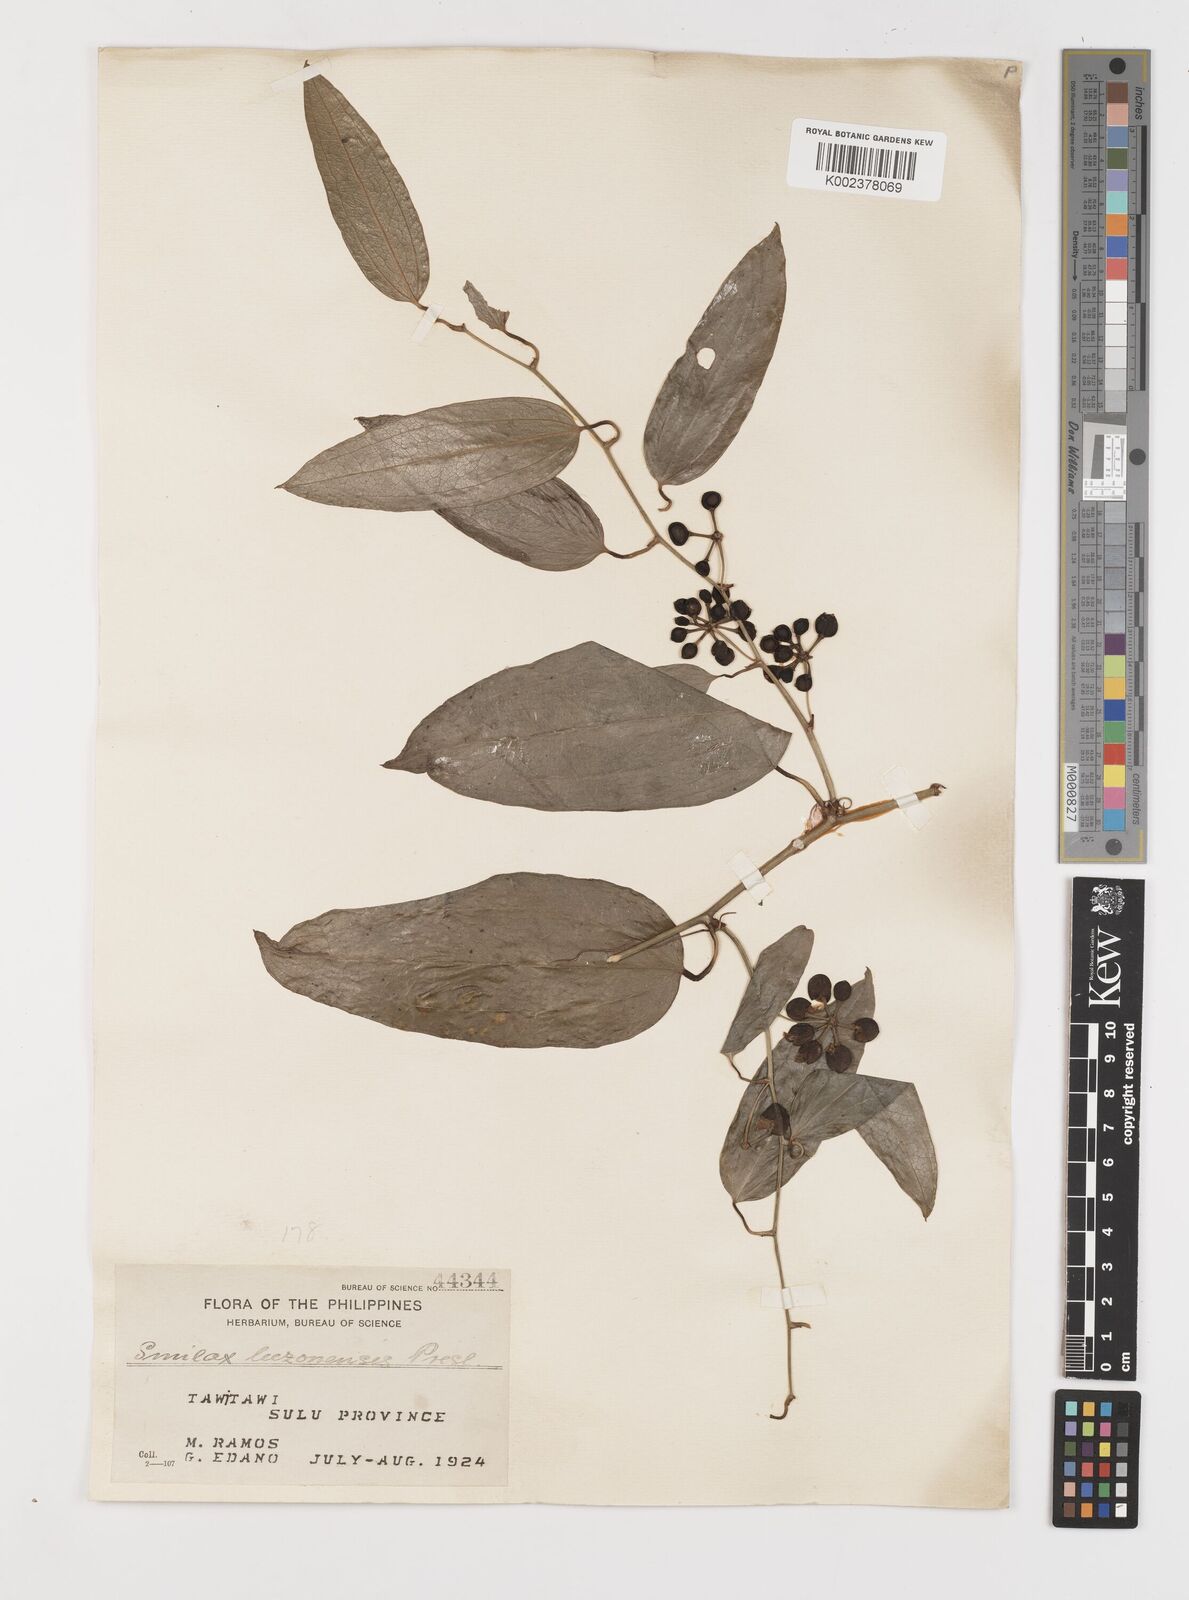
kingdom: Plantae
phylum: Tracheophyta
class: Liliopsida
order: Liliales
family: Smilacaceae
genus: Smilax
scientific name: Smilax luzonensis
